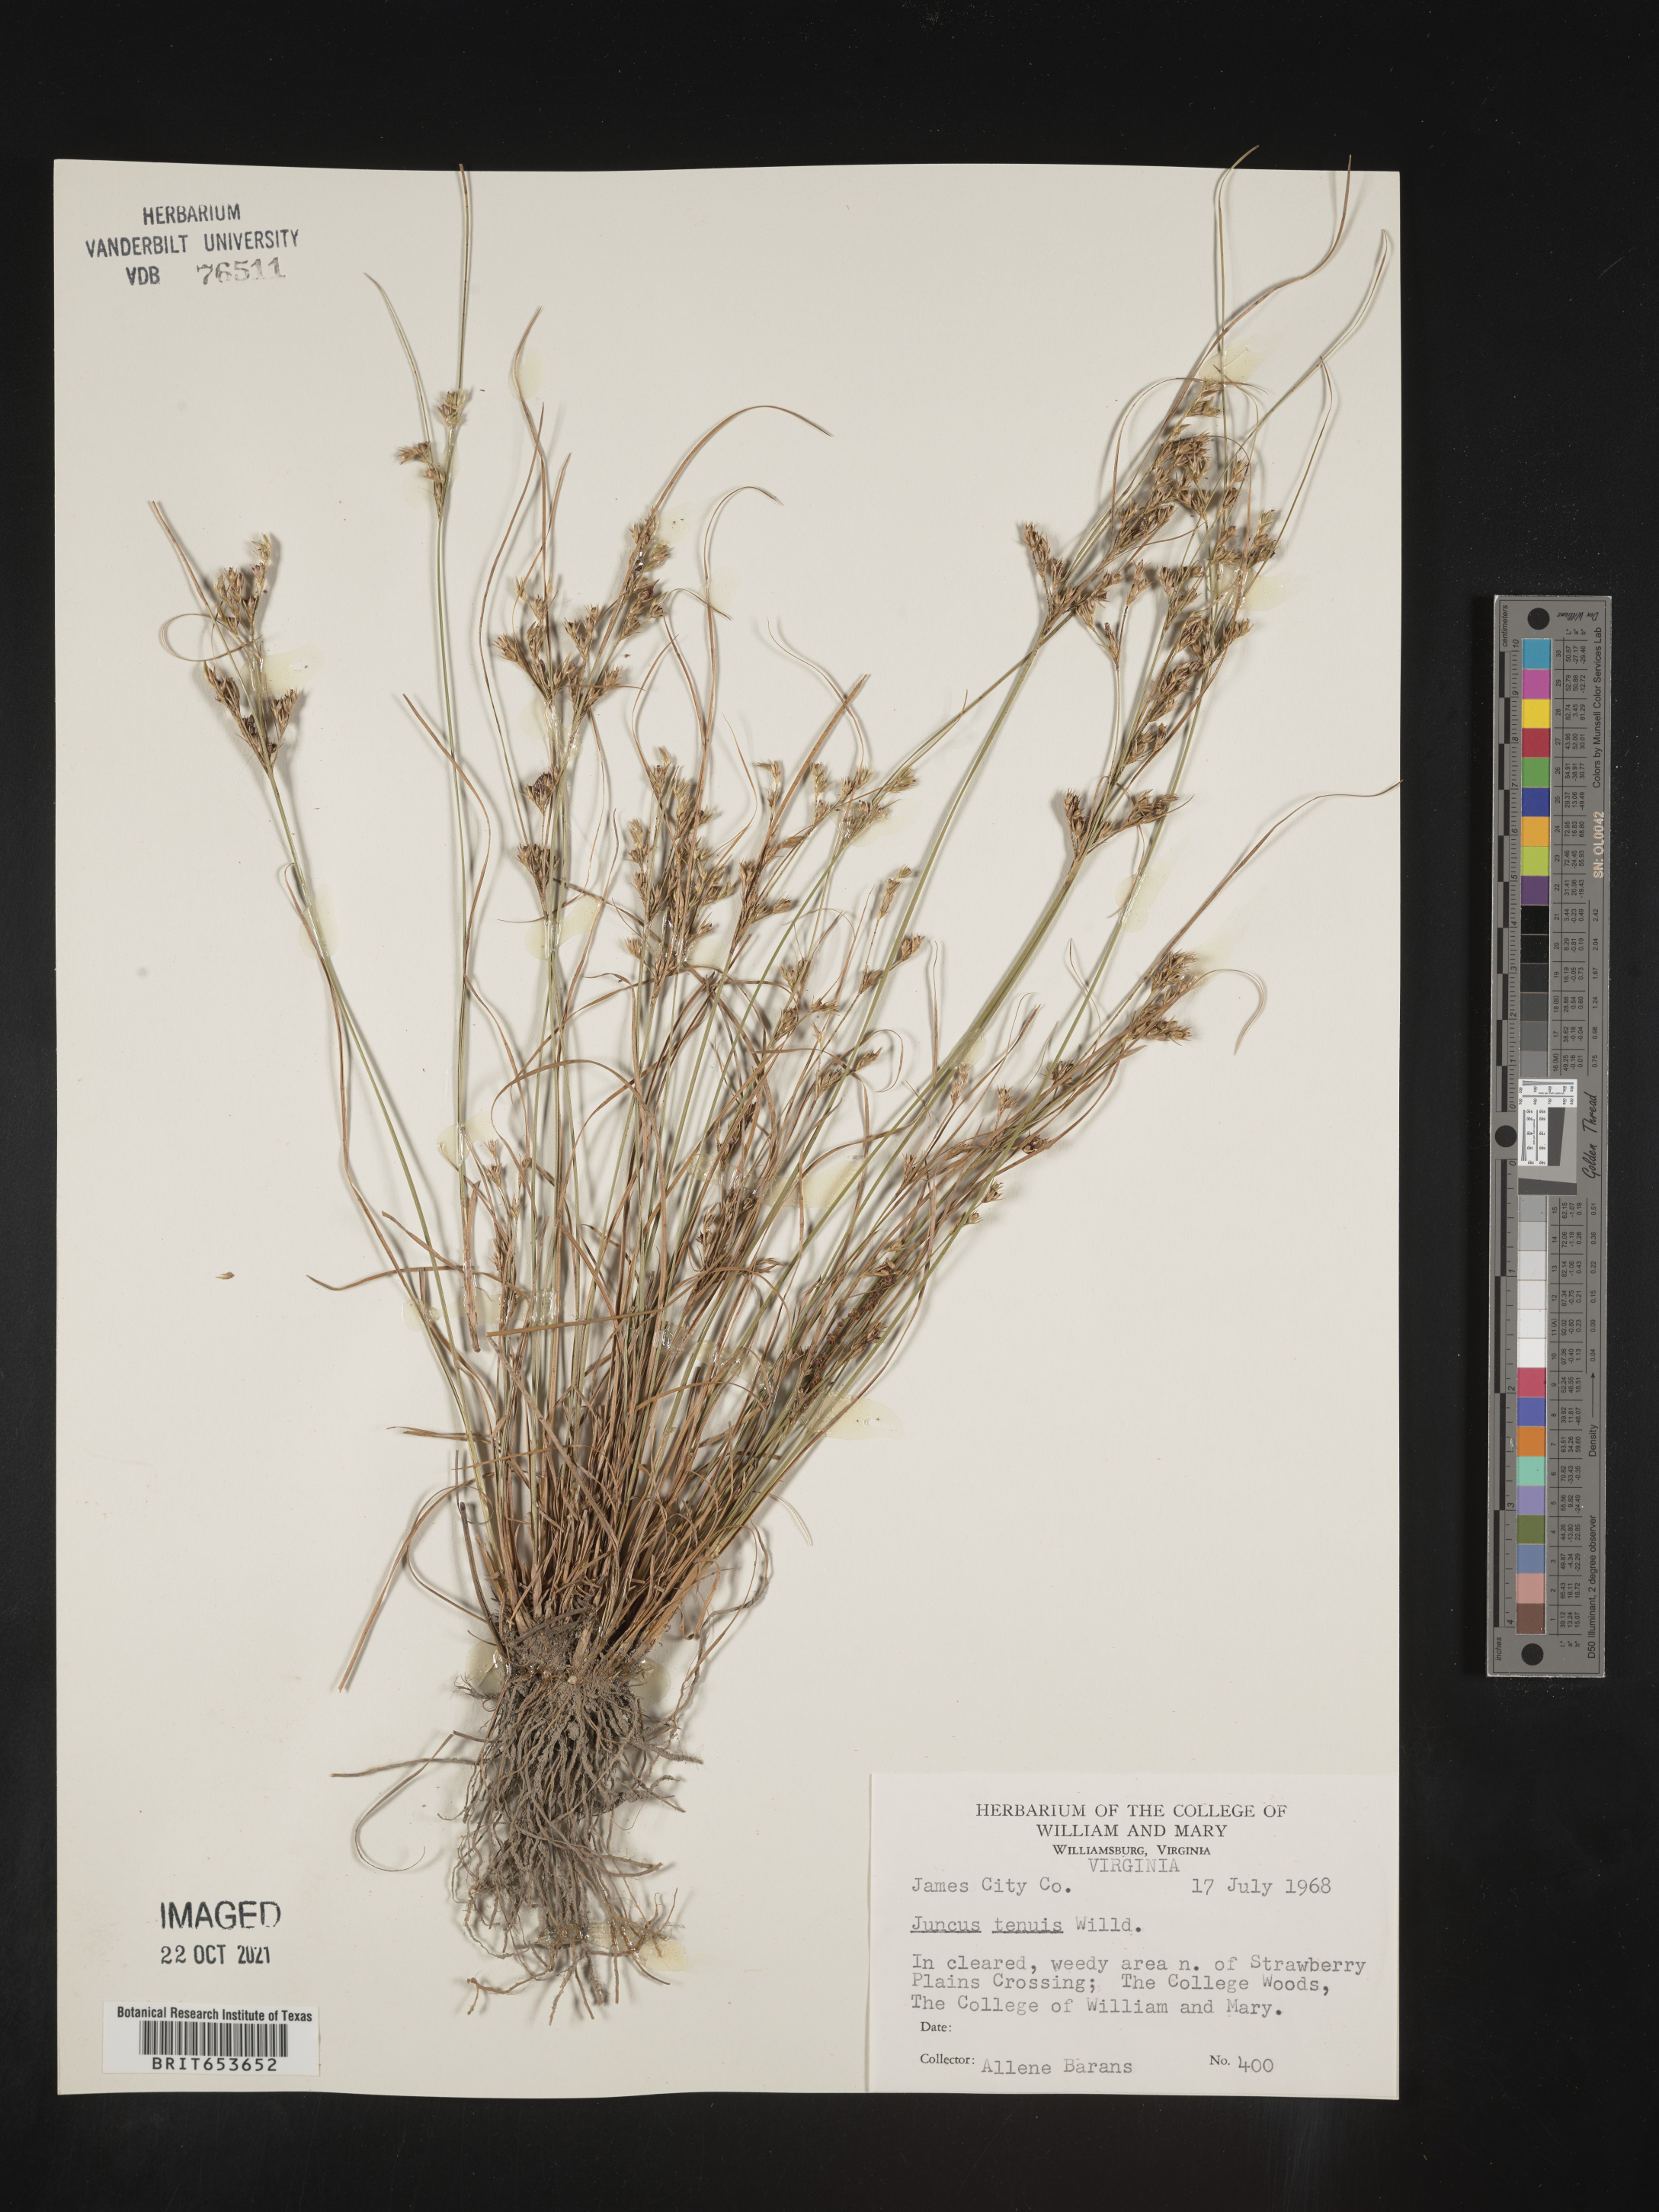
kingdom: Plantae
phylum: Tracheophyta
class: Liliopsida
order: Poales
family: Juncaceae
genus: Juncus
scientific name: Juncus tenuis
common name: Slender rush
